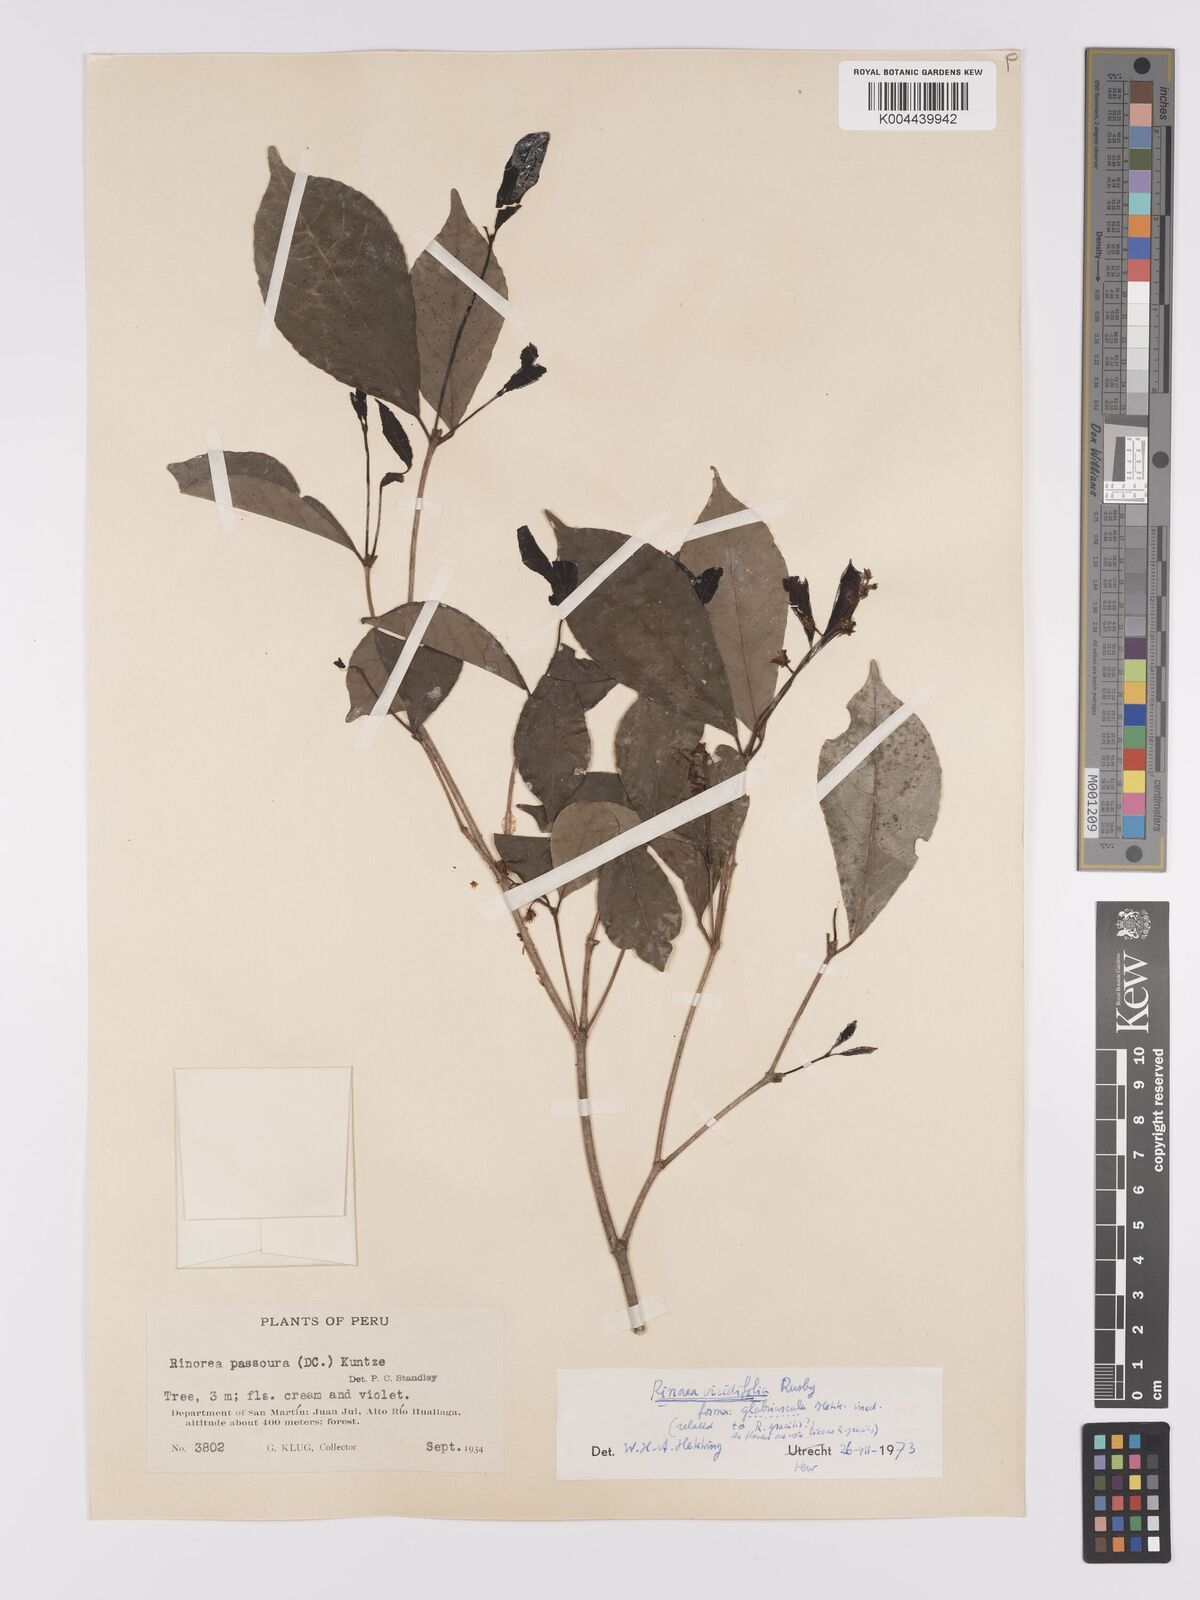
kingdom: Plantae
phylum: Tracheophyta
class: Magnoliopsida
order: Malpighiales
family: Violaceae
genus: Rinorea
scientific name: Rinorea viridifolia
